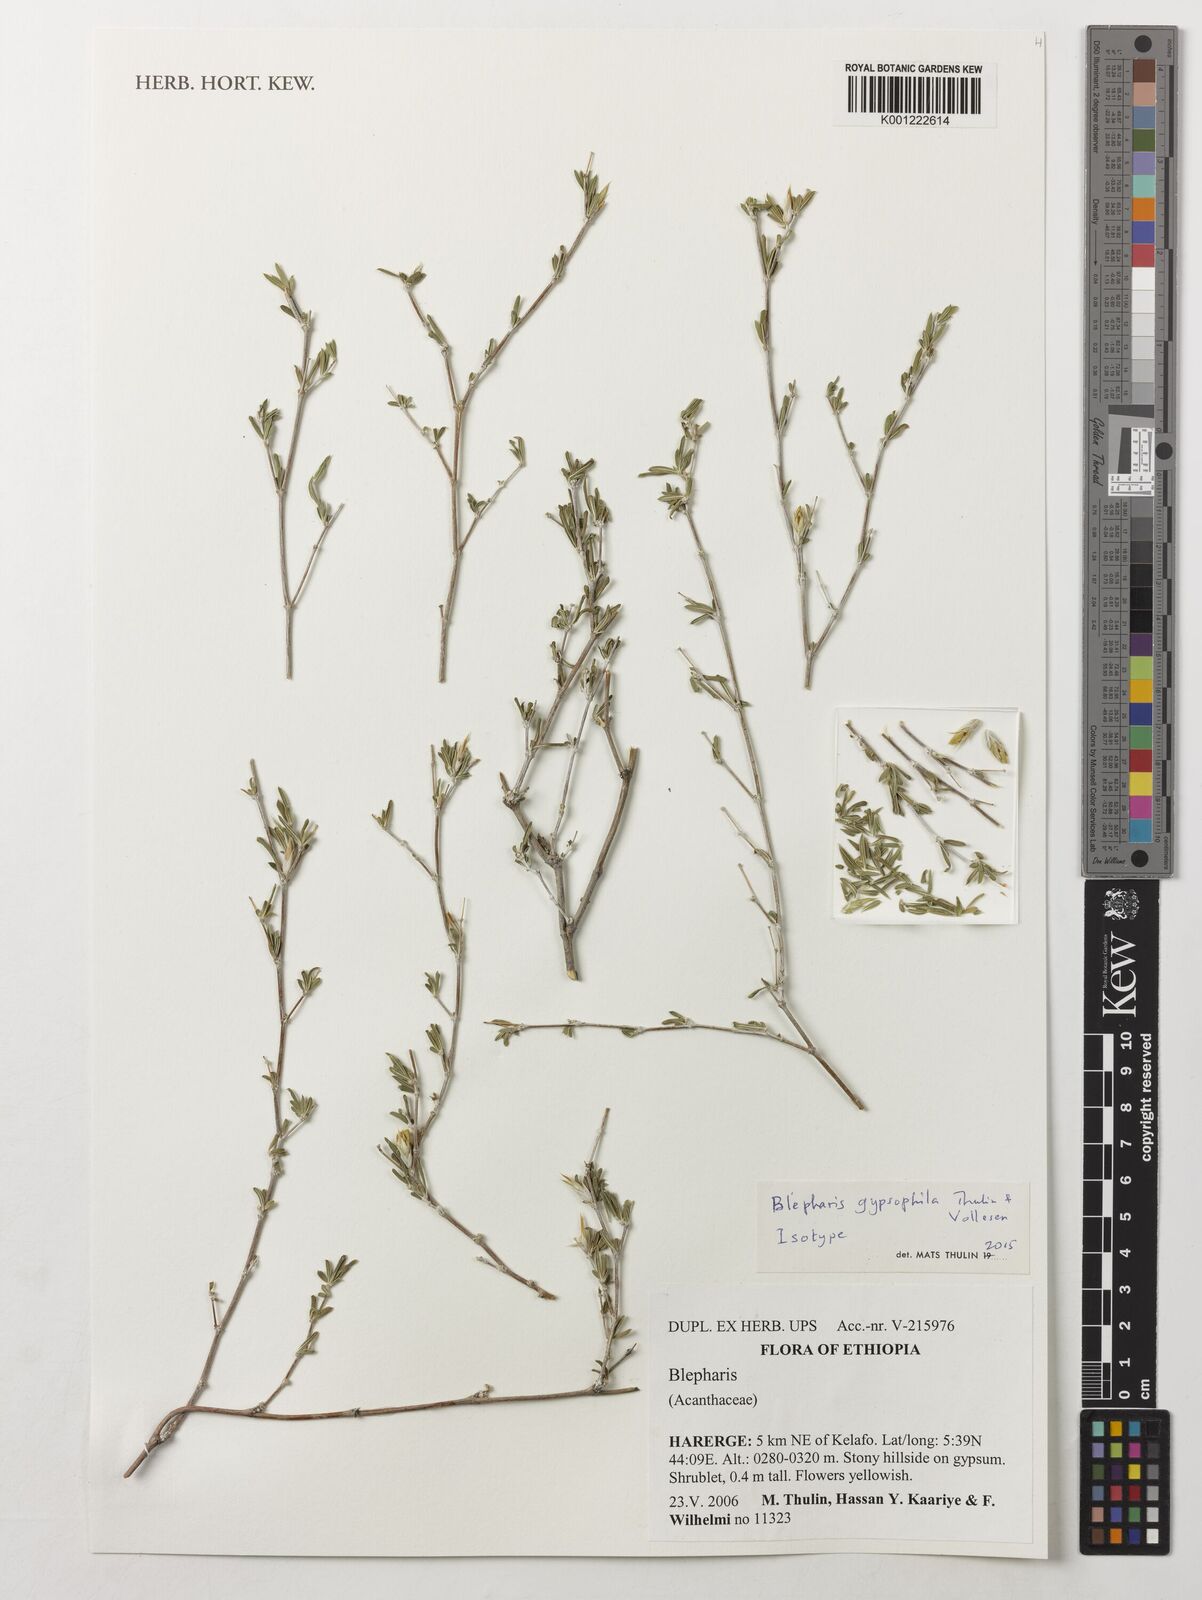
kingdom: Plantae
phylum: Tracheophyta
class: Magnoliopsida
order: Lamiales
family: Acanthaceae
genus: Blepharis
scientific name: Blepharis gypsophila
